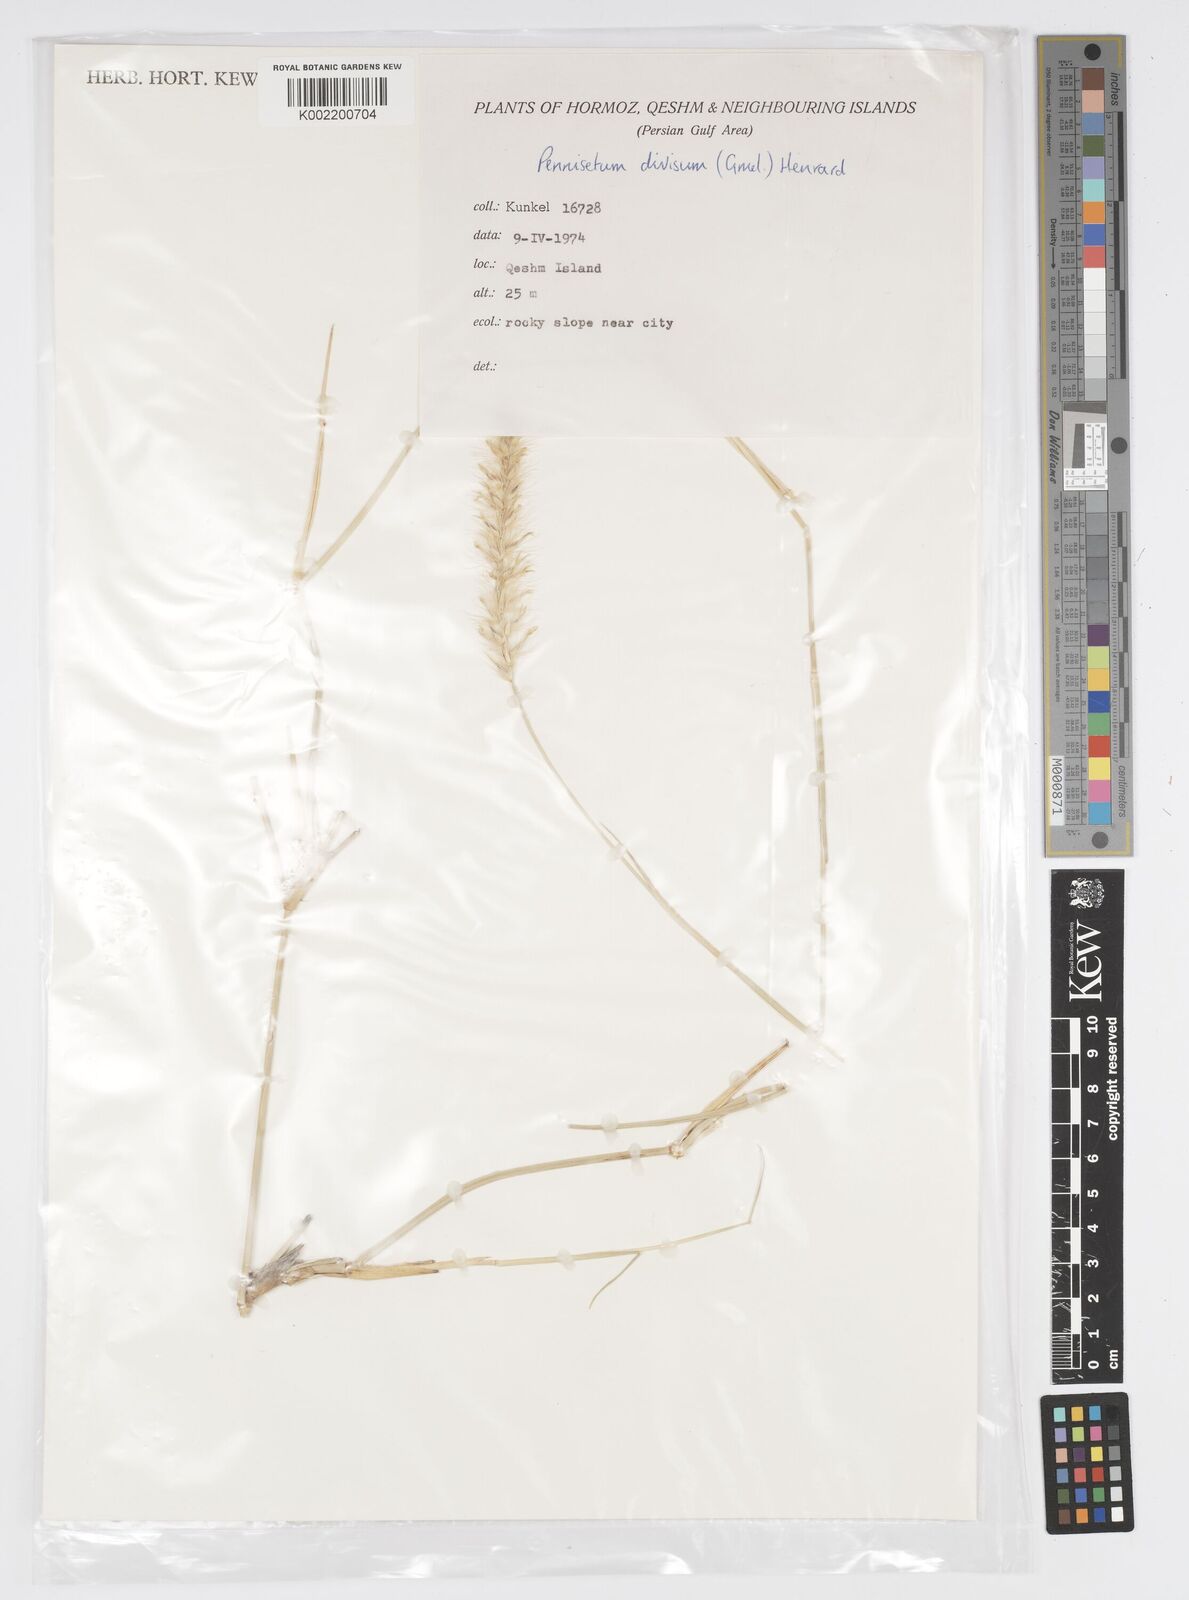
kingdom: Plantae
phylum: Tracheophyta
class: Liliopsida
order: Poales
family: Poaceae
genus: Cenchrus
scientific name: Cenchrus divisus
